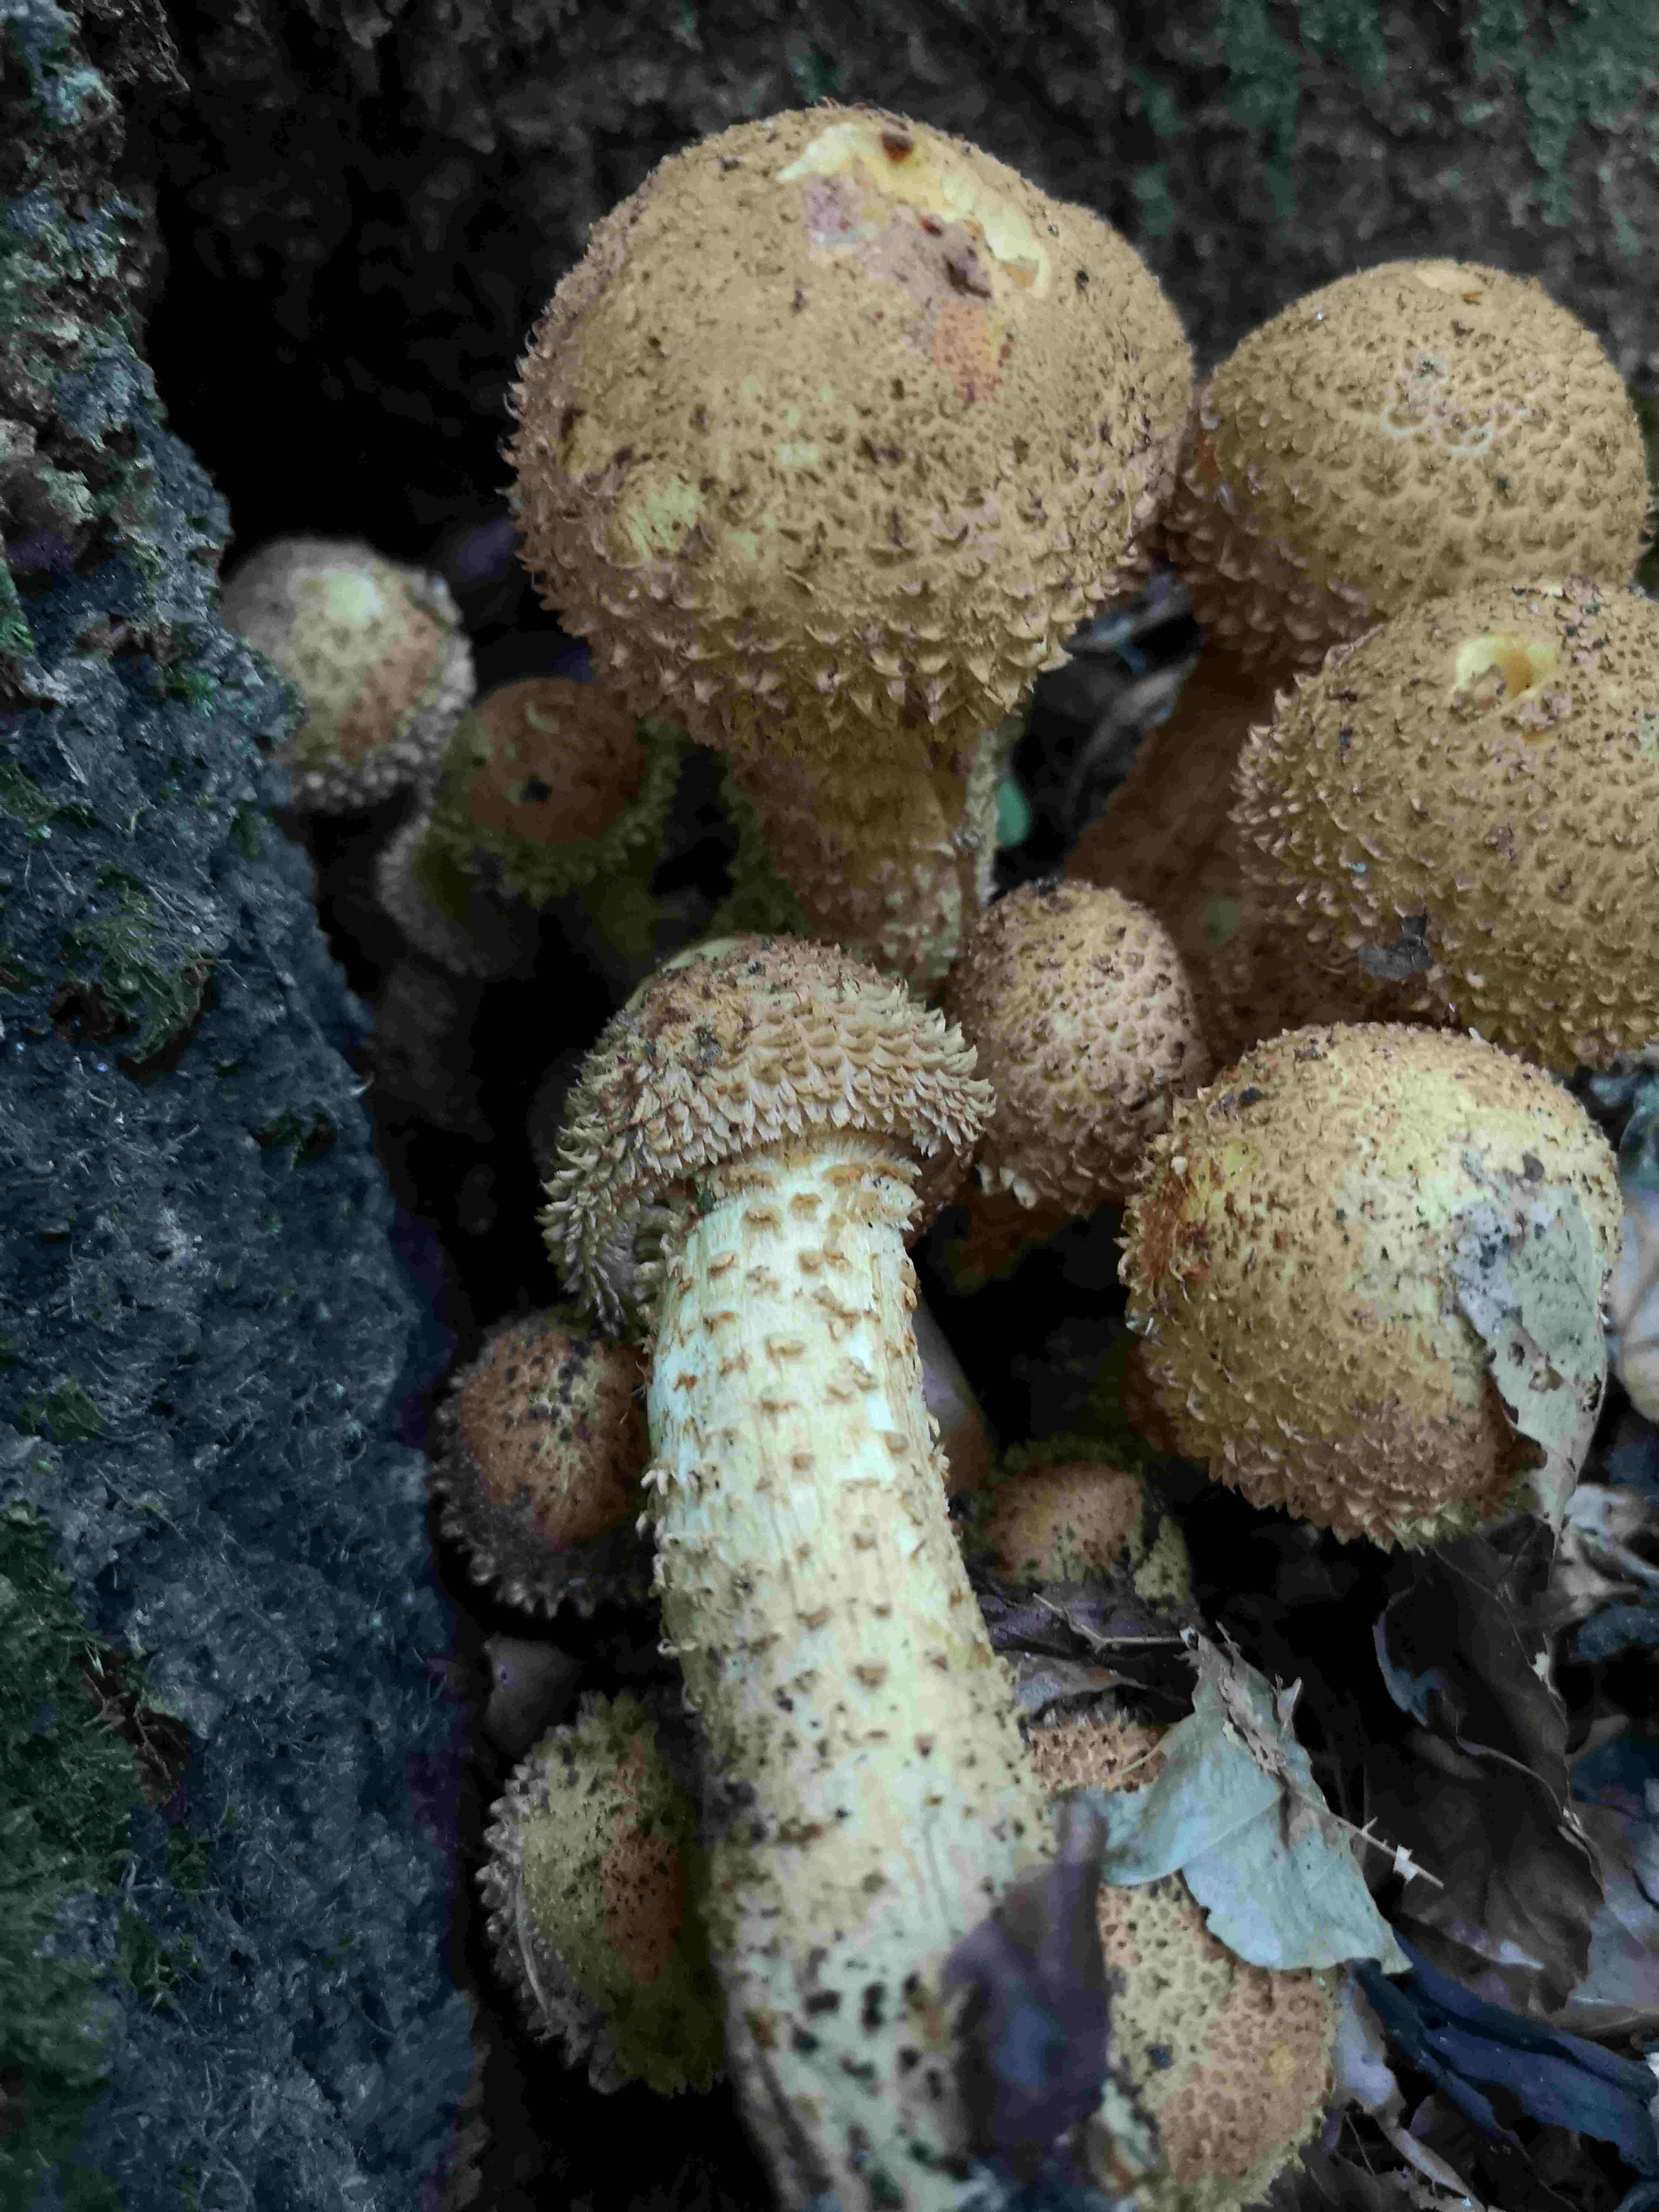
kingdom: Fungi
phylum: Basidiomycota
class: Agaricomycetes
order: Agaricales
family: Strophariaceae
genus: Pholiota
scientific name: Pholiota squarrosa
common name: krumskællet skælhat
